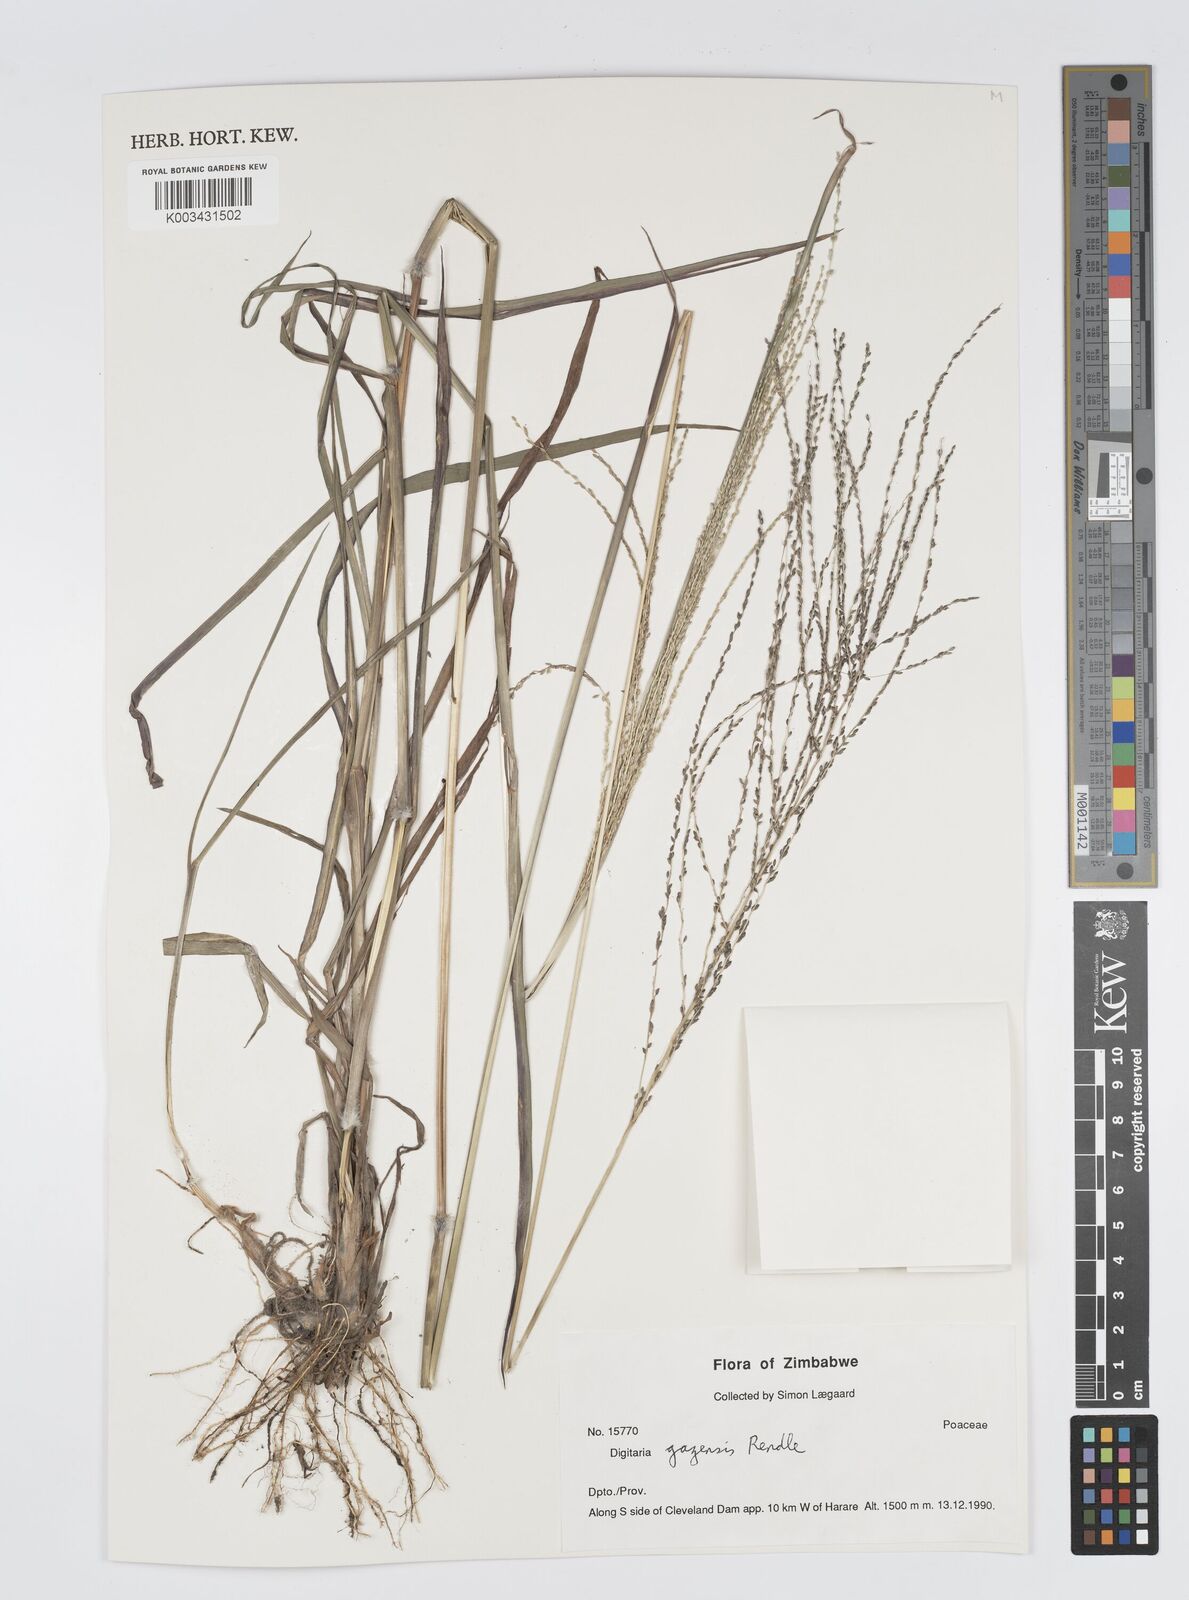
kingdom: Plantae
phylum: Tracheophyta
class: Liliopsida
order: Poales
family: Poaceae
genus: Digitaria
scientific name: Digitaria gazensis
